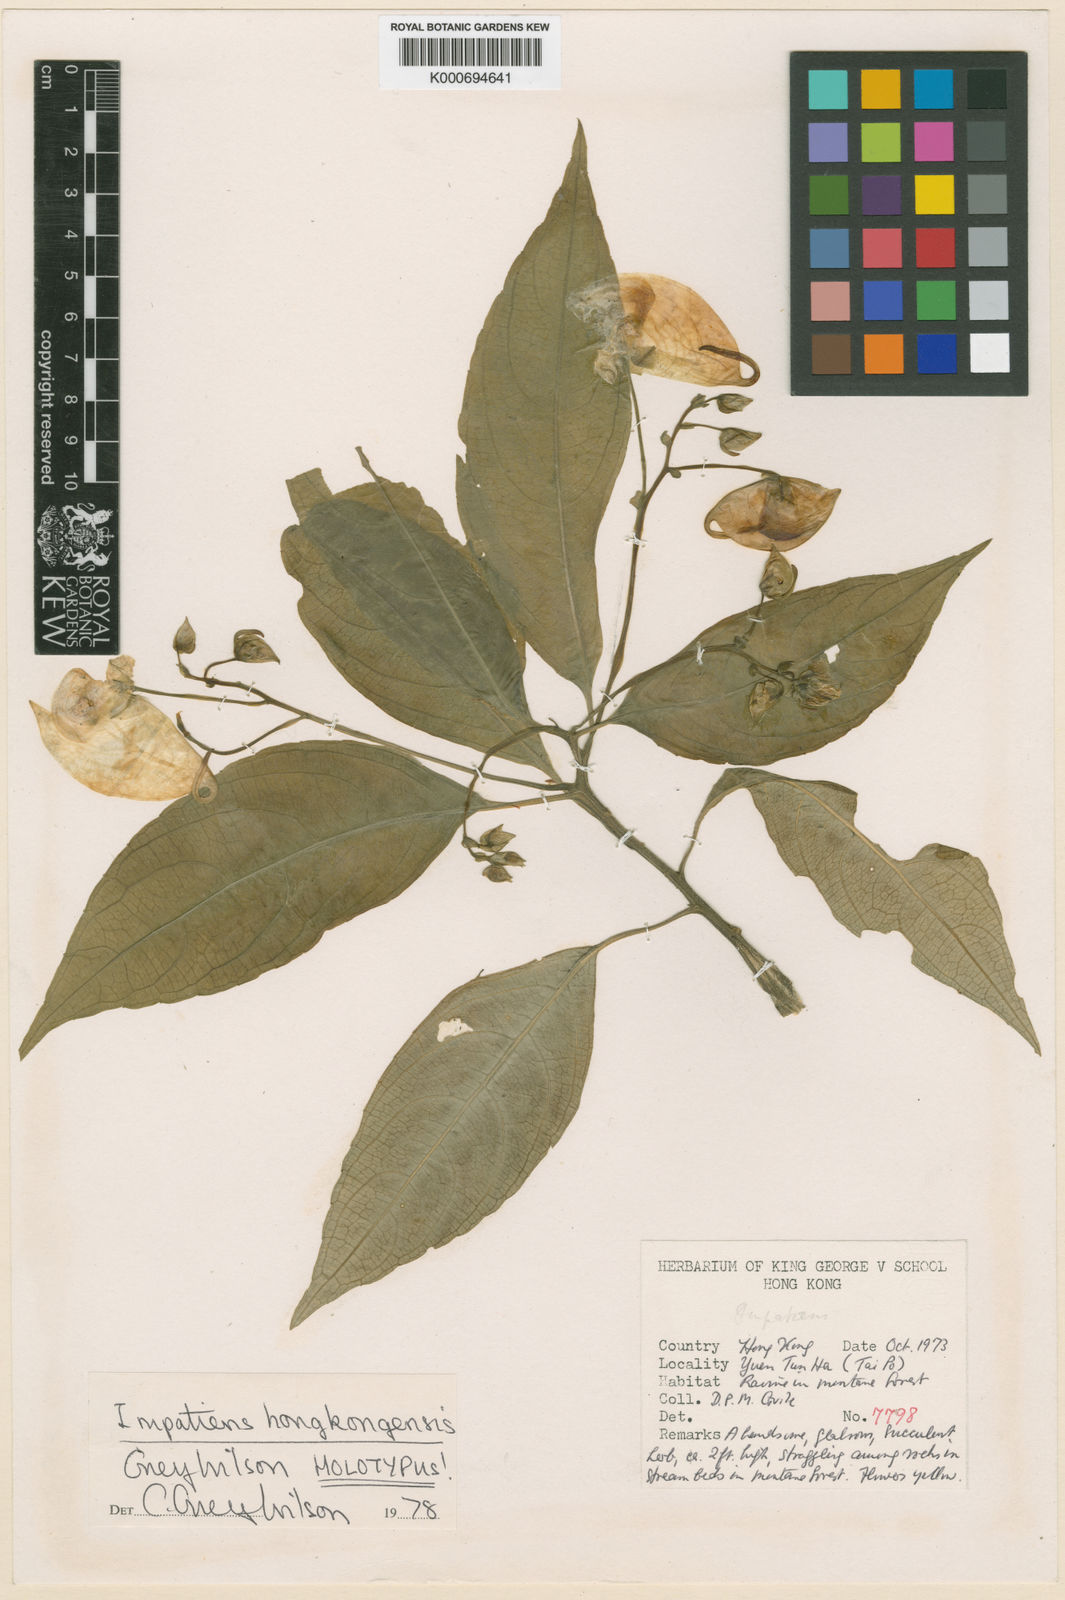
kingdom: Plantae
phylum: Tracheophyta
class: Magnoliopsida
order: Ericales
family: Balsaminaceae
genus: Impatiens
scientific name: Impatiens hongkongensis
